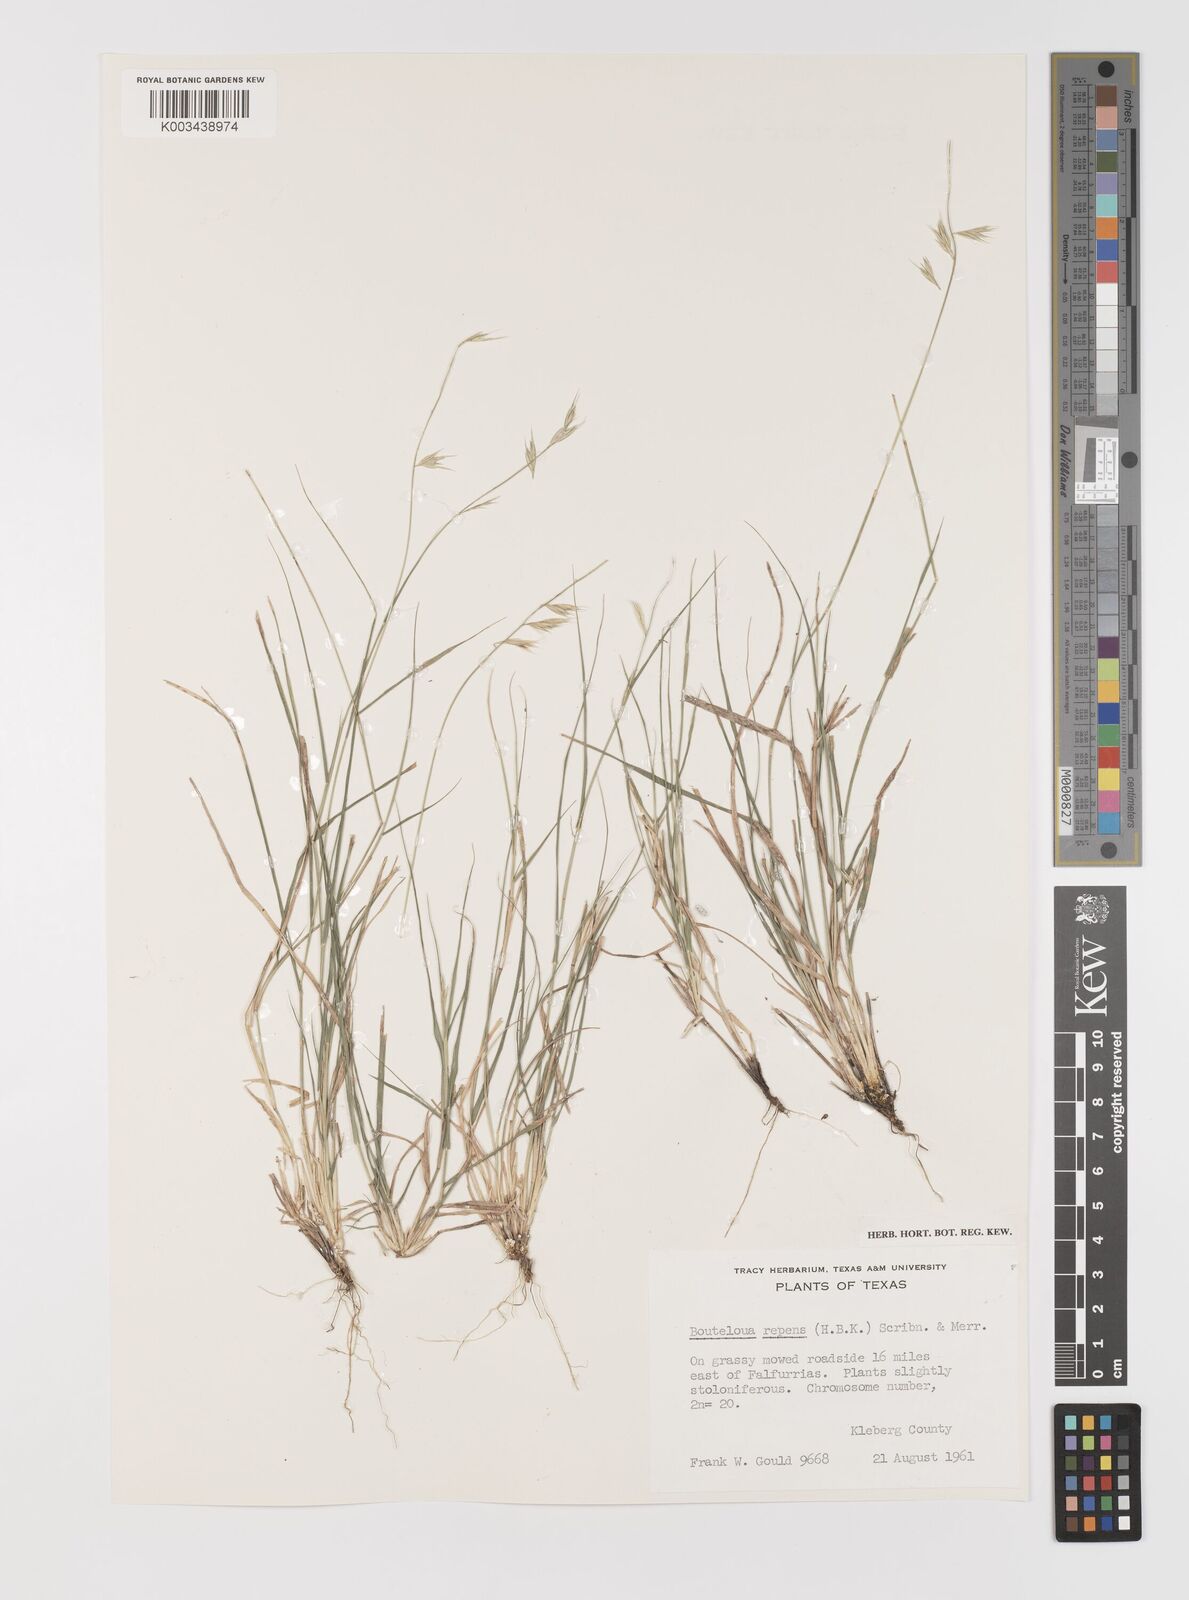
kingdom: Plantae
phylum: Tracheophyta
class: Liliopsida
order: Poales
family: Poaceae
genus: Bouteloua
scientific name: Bouteloua repens
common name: Slender grama
